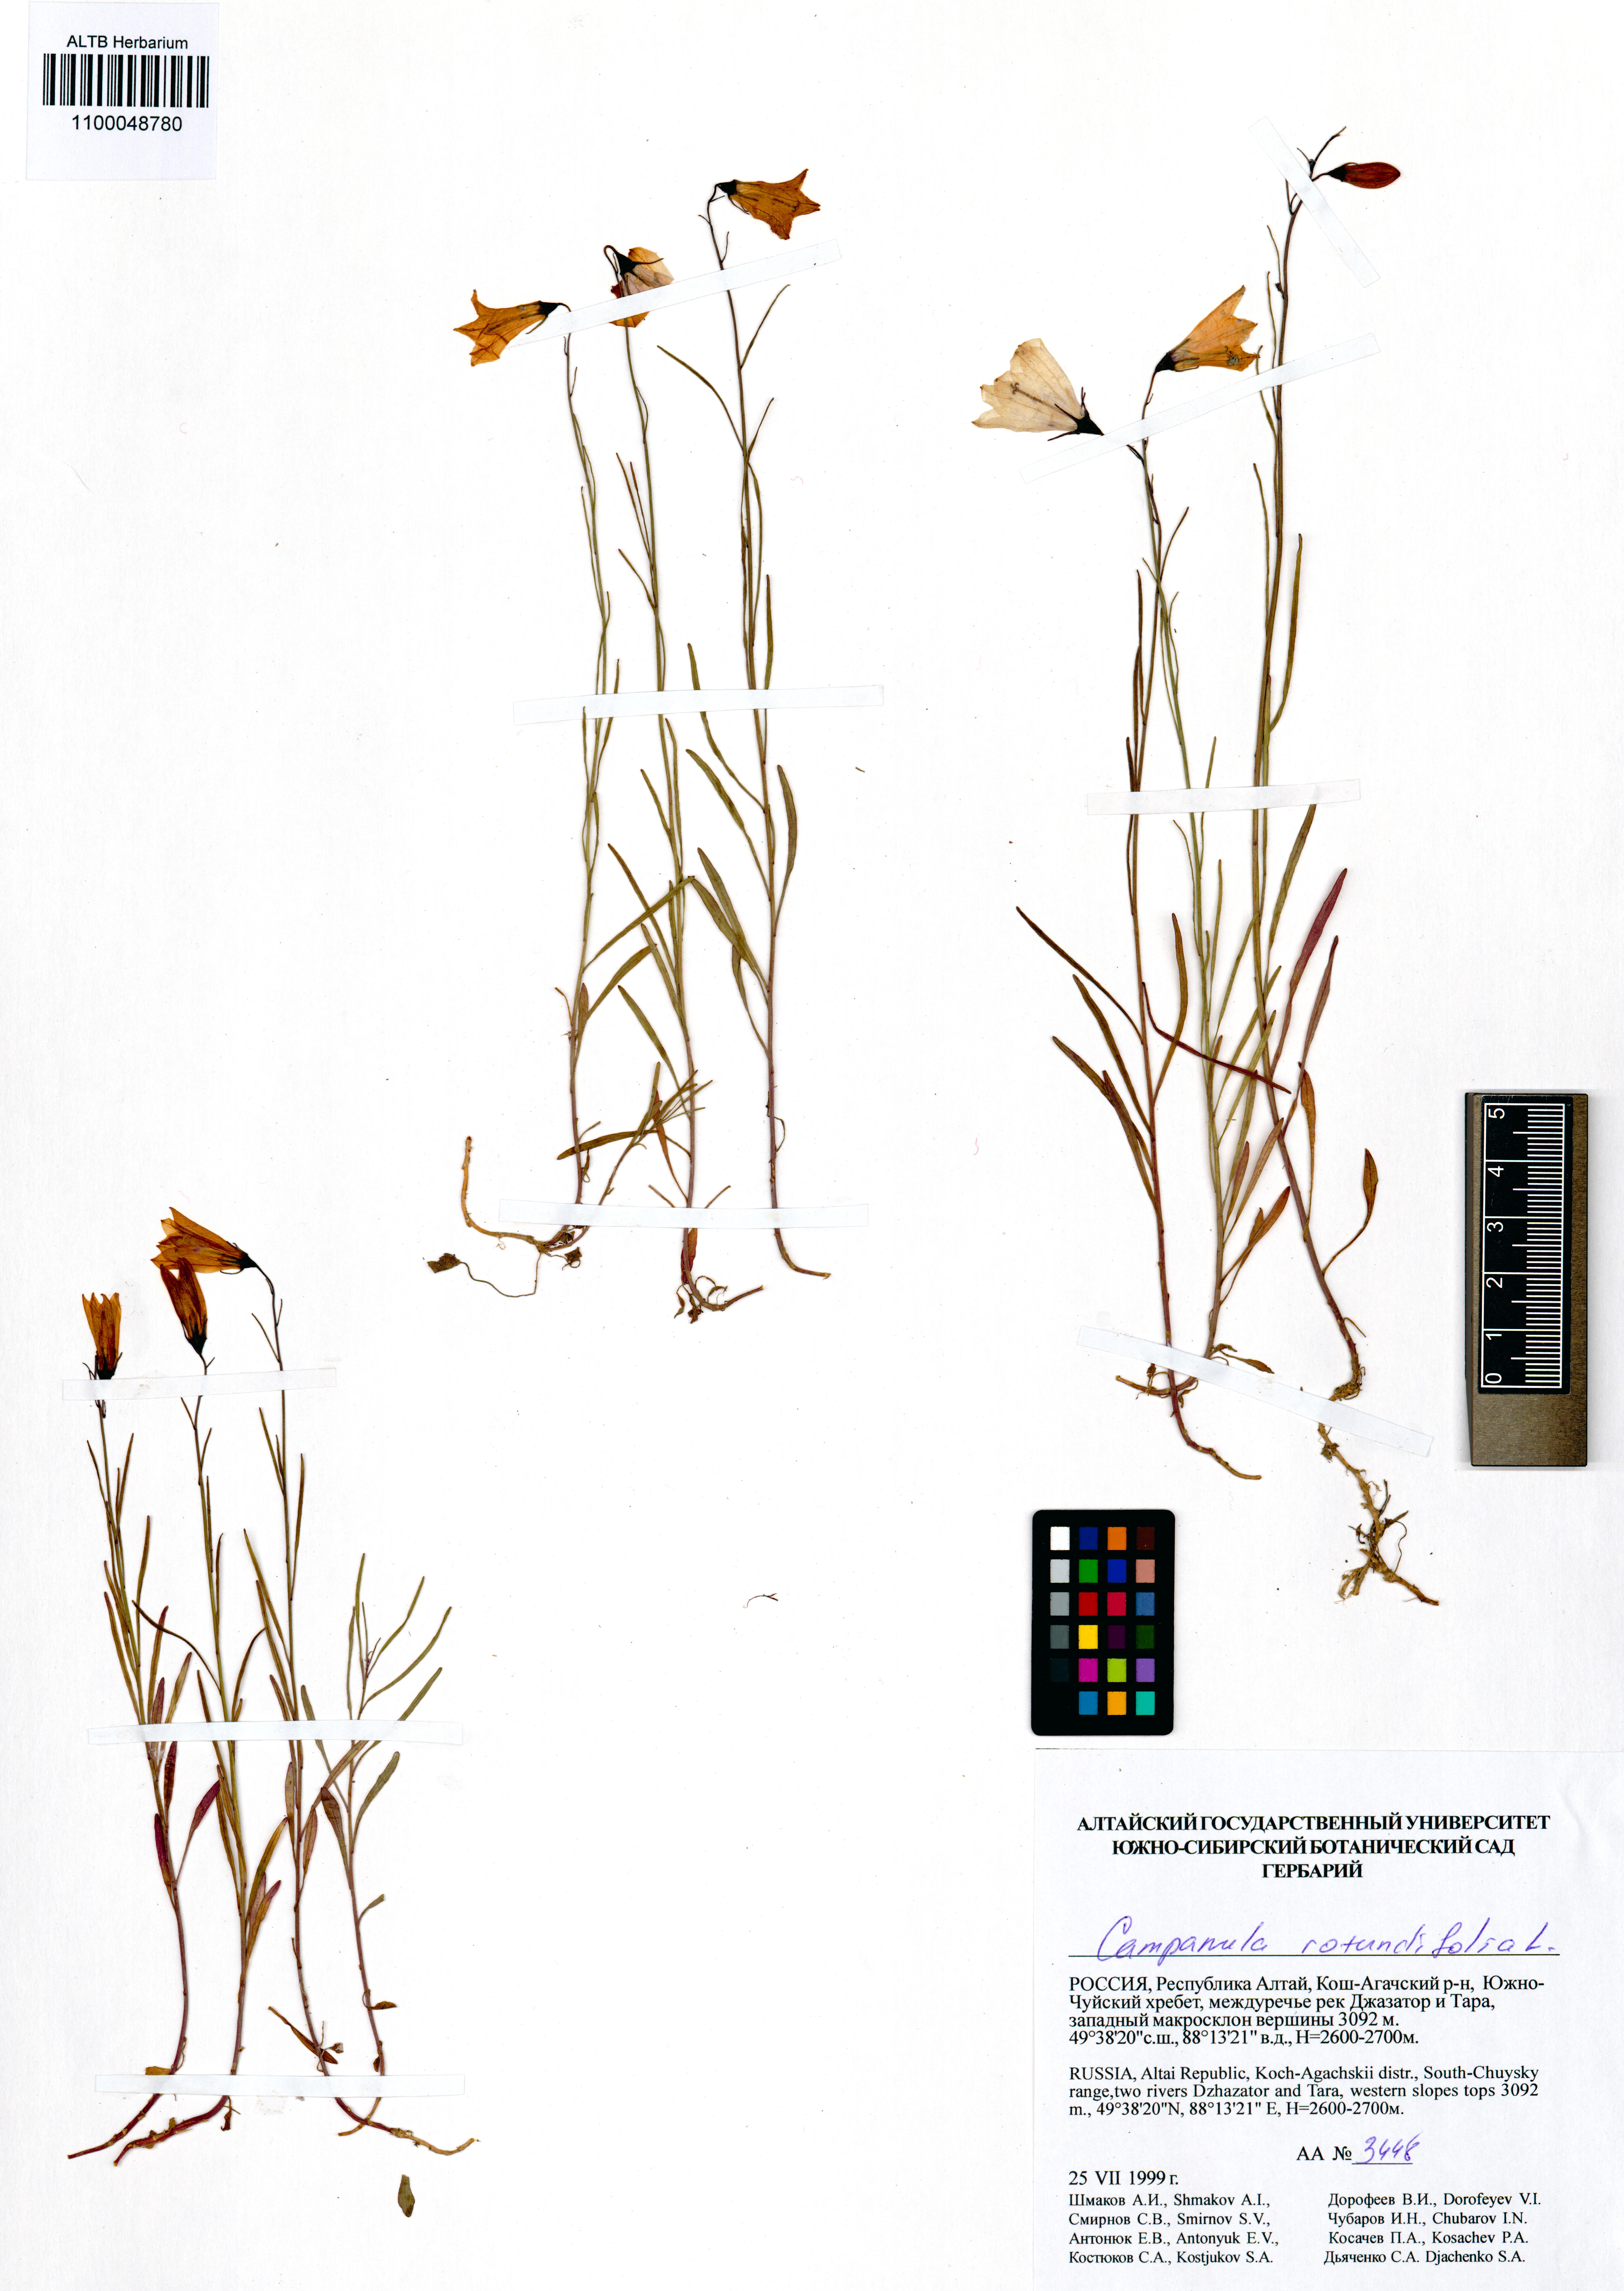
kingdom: Plantae
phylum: Tracheophyta
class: Magnoliopsida
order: Asterales
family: Campanulaceae
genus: Campanula
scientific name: Campanula rotundifolia
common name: Harebell
